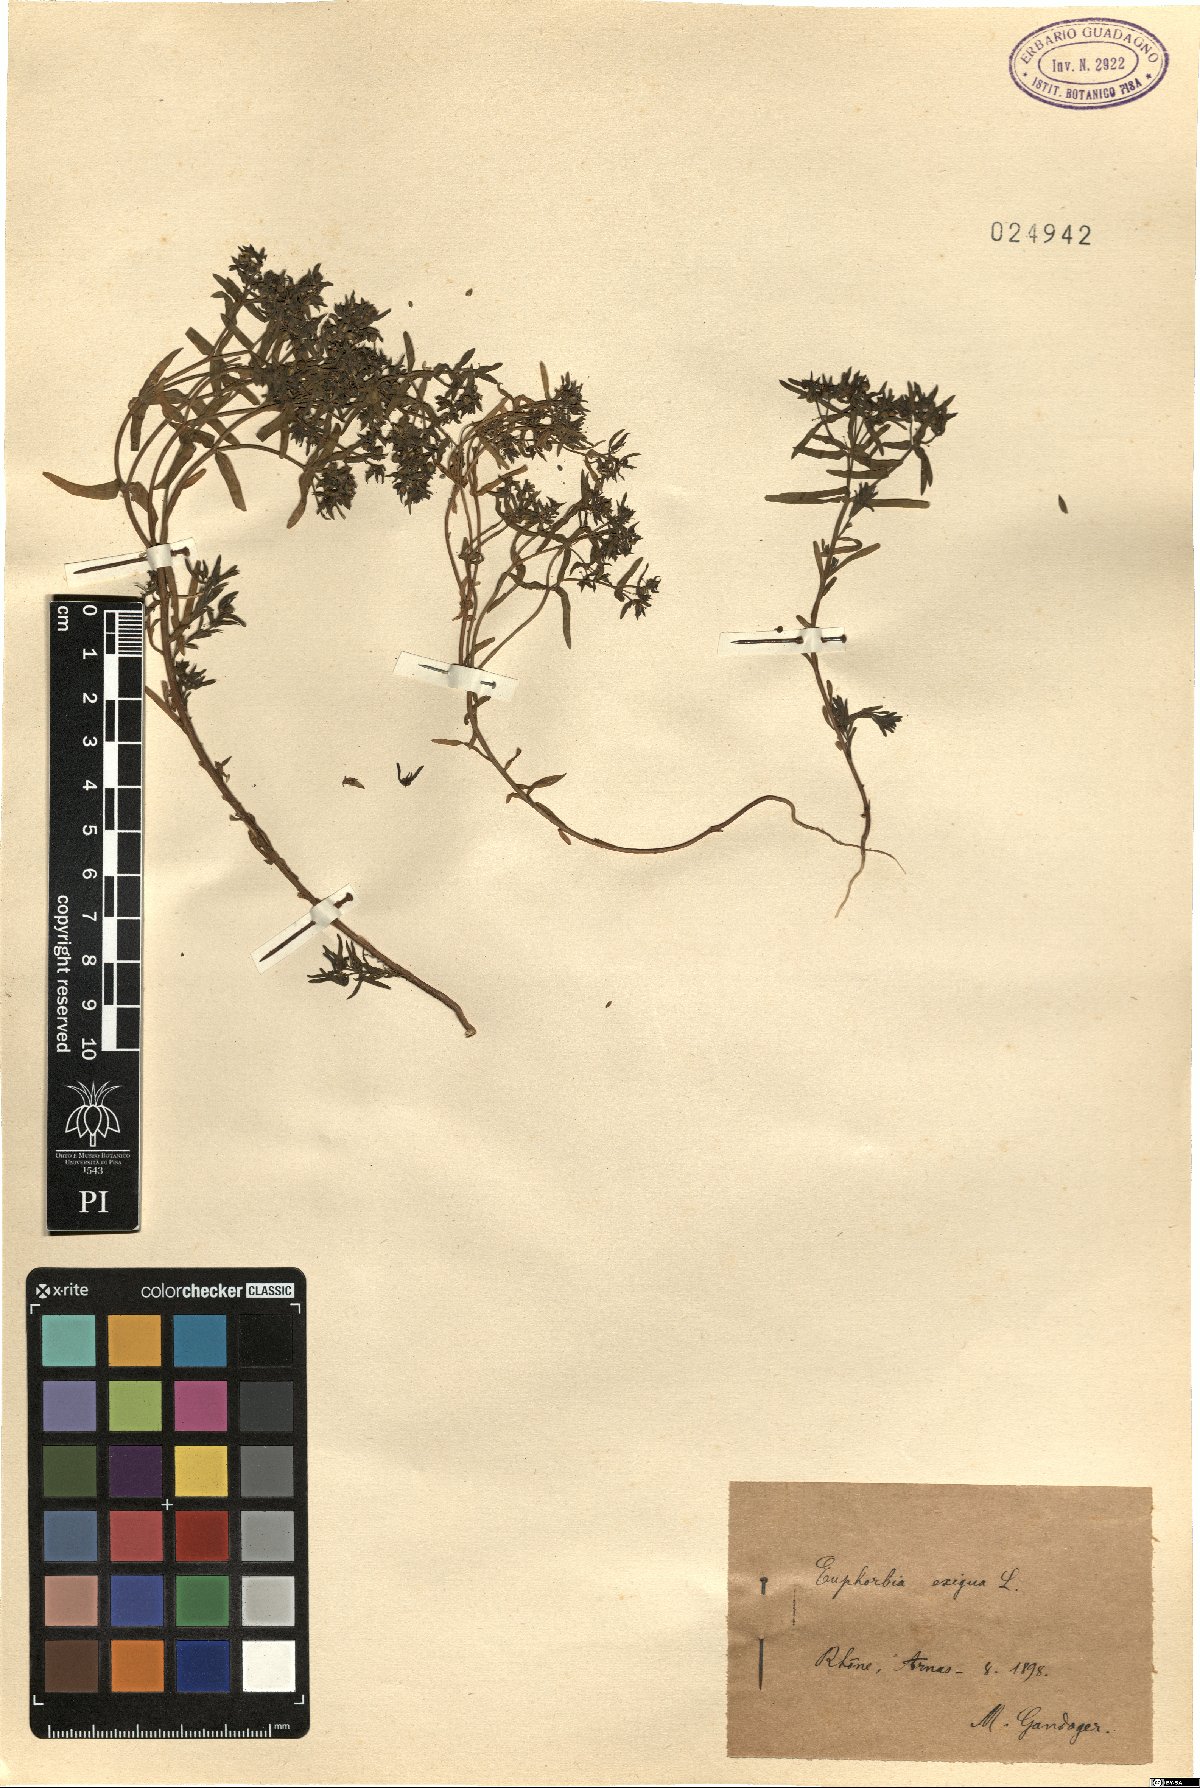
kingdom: Plantae
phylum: Tracheophyta
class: Magnoliopsida
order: Malpighiales
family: Euphorbiaceae
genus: Euphorbia
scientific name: Euphorbia exigua
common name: Dwarf spurge
